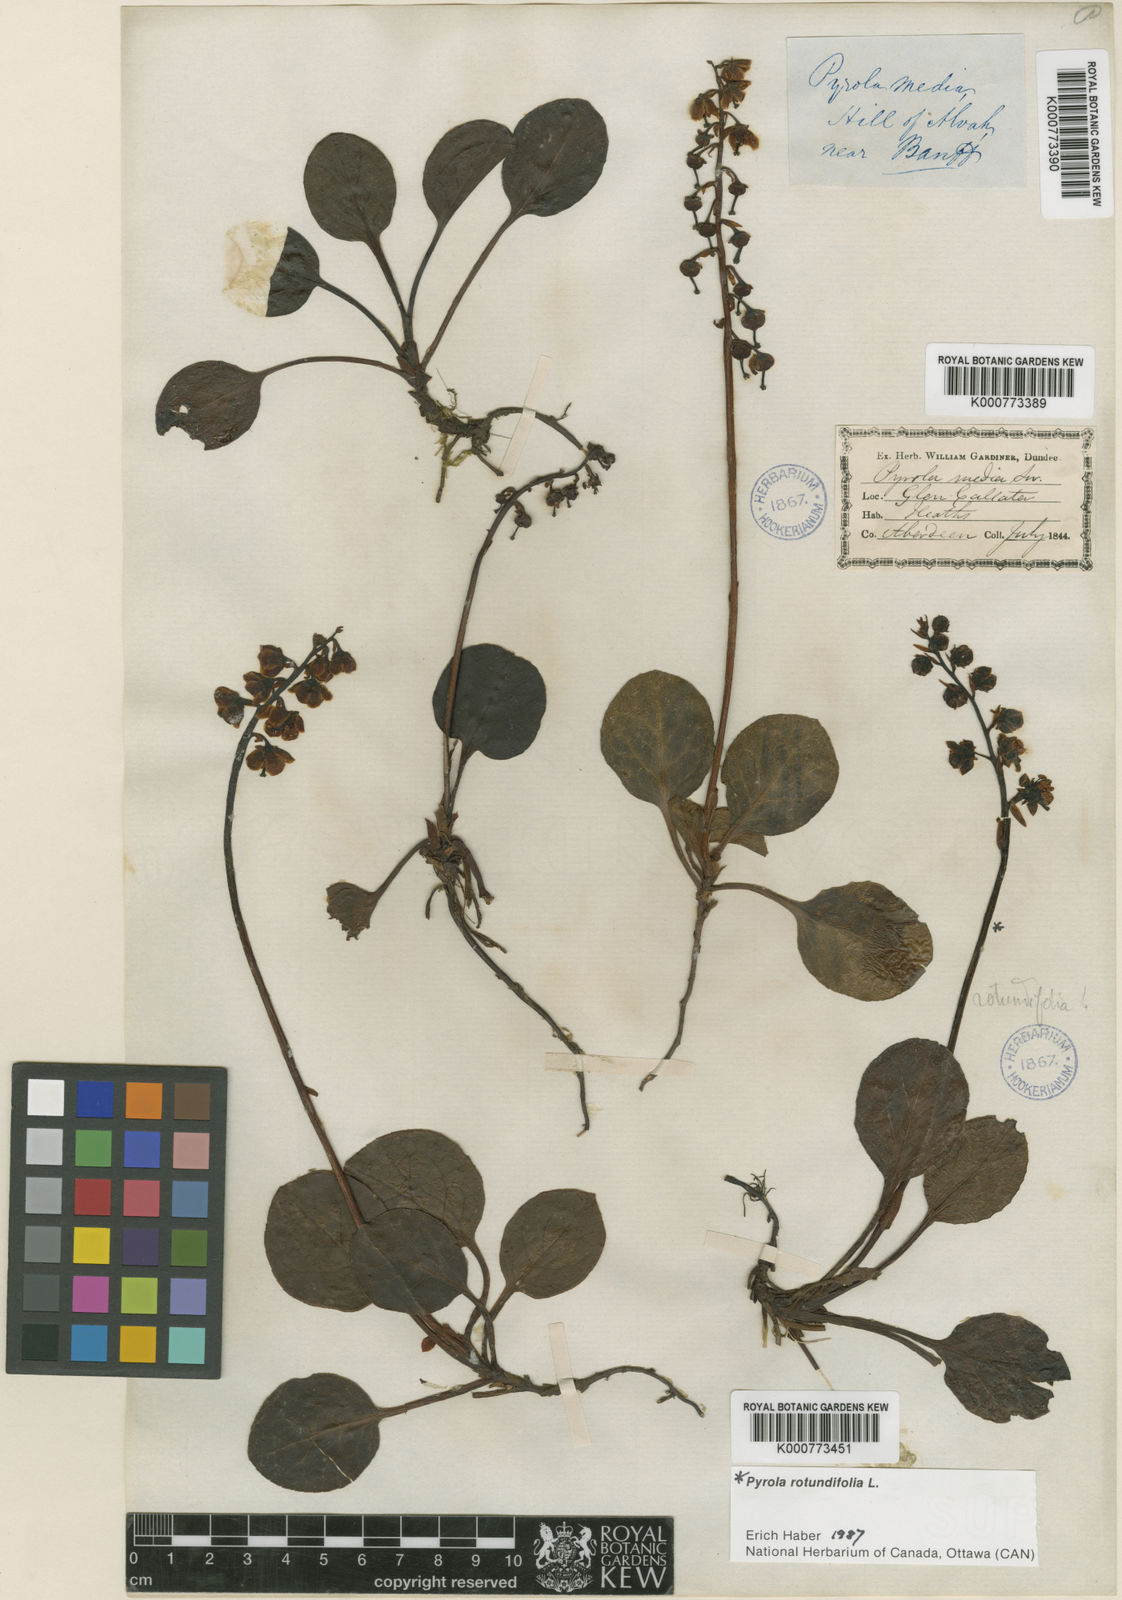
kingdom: Plantae
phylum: Tracheophyta
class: Magnoliopsida
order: Ericales
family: Ericaceae
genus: Pyrola
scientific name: Pyrola media
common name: Intermediate wintergreen
